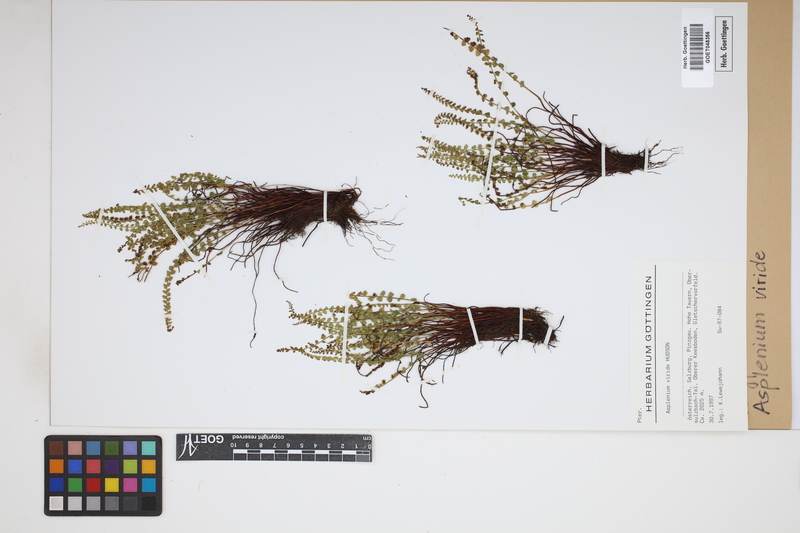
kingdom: Plantae
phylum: Tracheophyta
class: Polypodiopsida
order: Polypodiales
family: Aspleniaceae
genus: Asplenium
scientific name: Asplenium viride
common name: Green spleenwort
